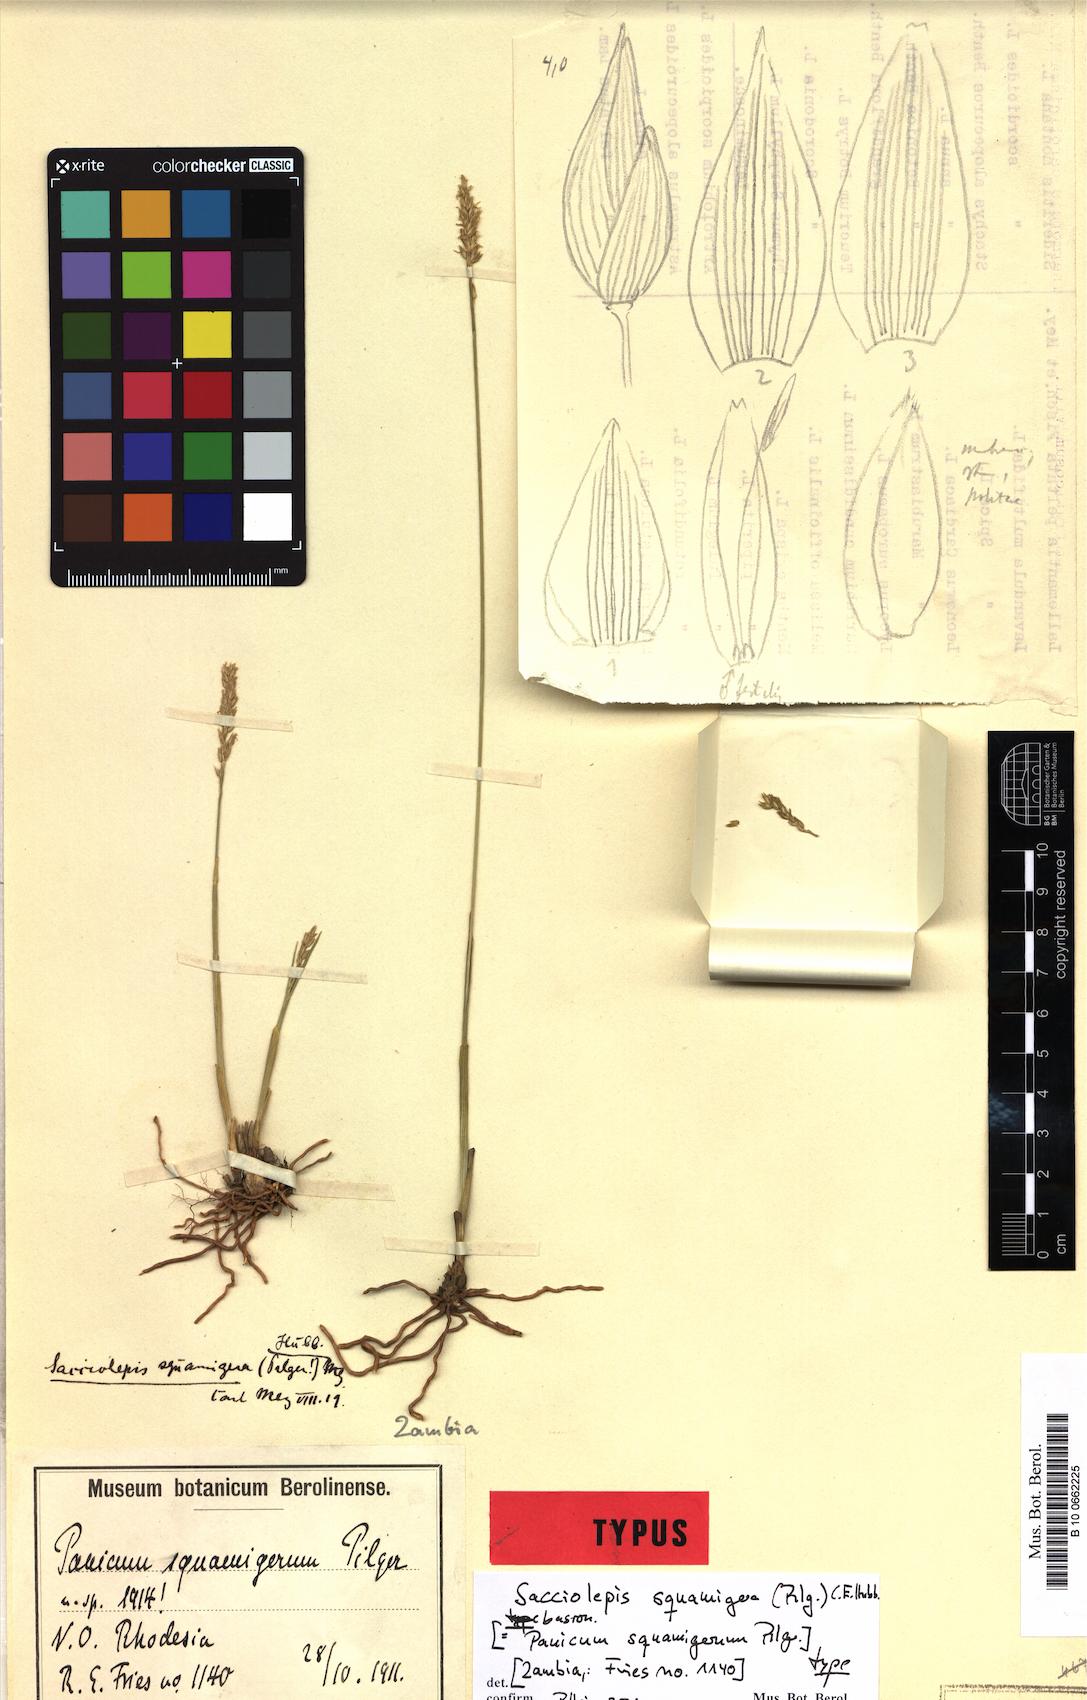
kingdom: Plantae
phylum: Tracheophyta
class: Liliopsida
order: Poales
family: Poaceae
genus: Sacciolepis
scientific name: Sacciolepis catumbensis
